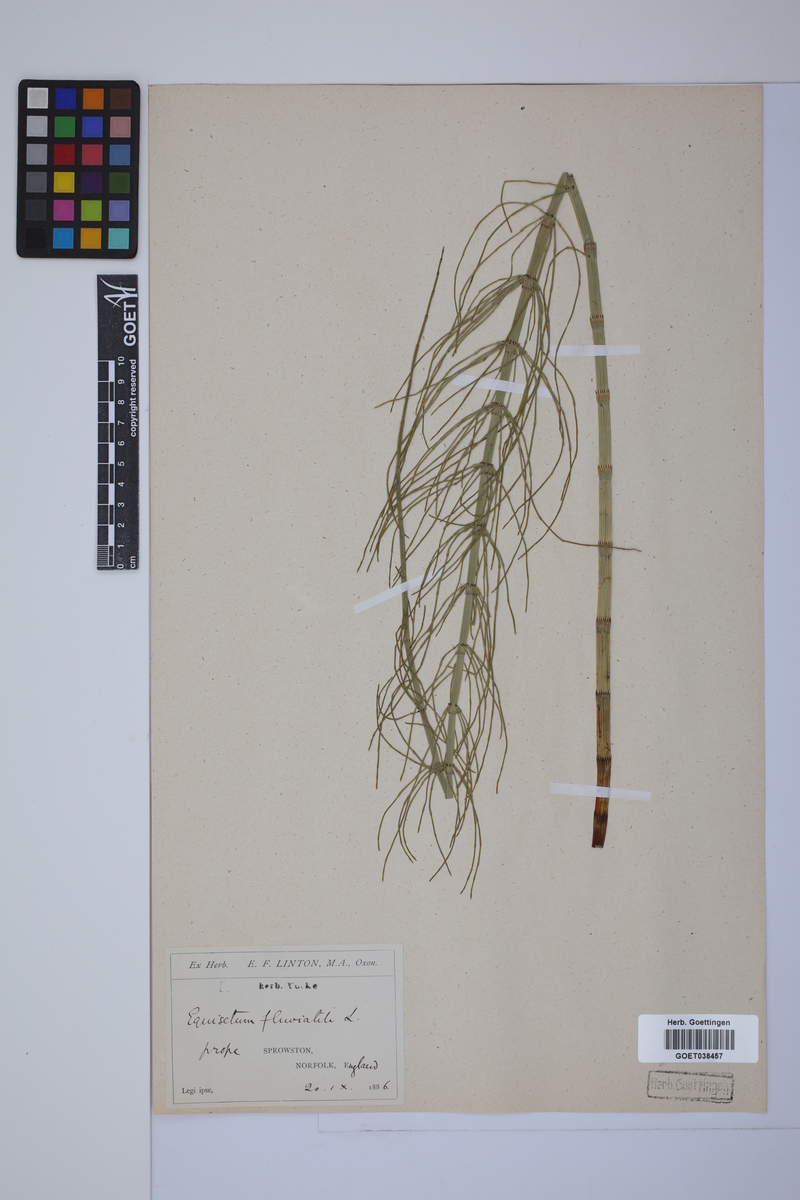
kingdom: Plantae
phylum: Tracheophyta
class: Polypodiopsida
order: Equisetales
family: Equisetaceae
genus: Equisetum
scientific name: Equisetum fluviatile
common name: Water horsetail
